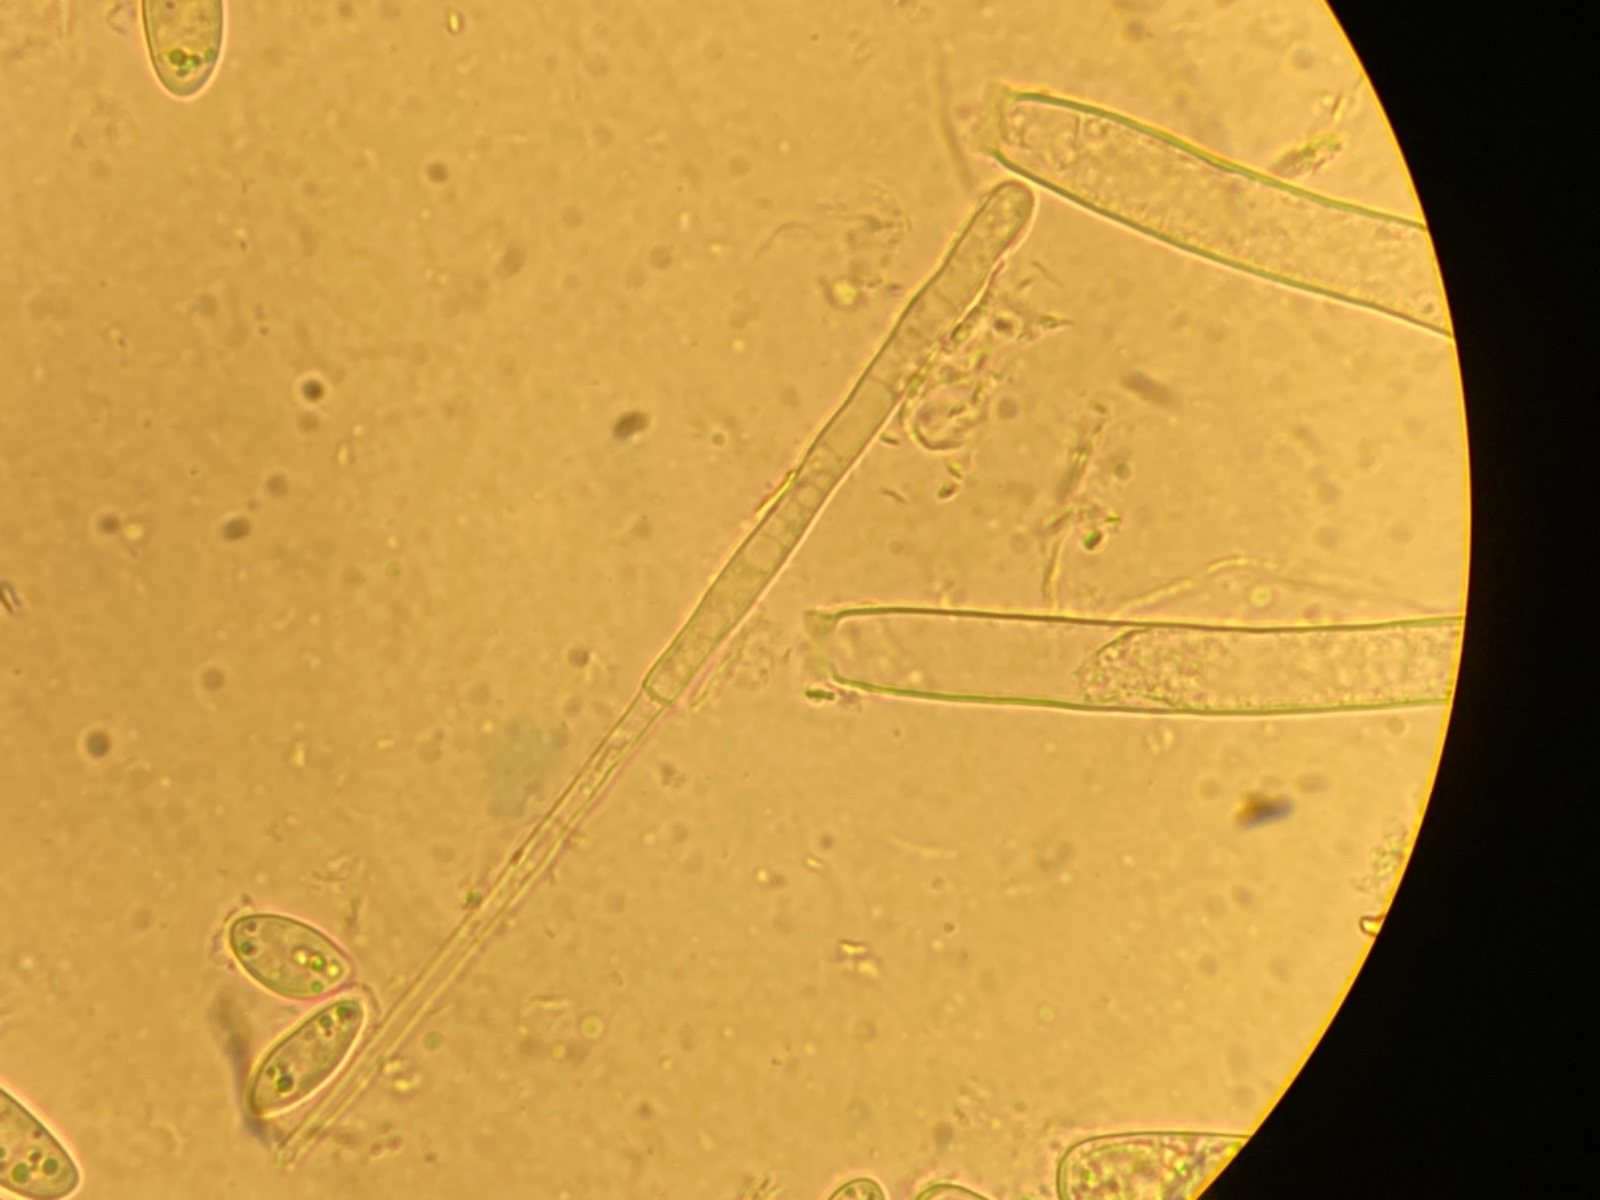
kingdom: Fungi
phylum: Ascomycota
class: Leotiomycetes
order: Helotiales
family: Sclerotiniaceae
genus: Sclerotinia
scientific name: Sclerotinia trifoliorum
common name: ærte-knoldskive
